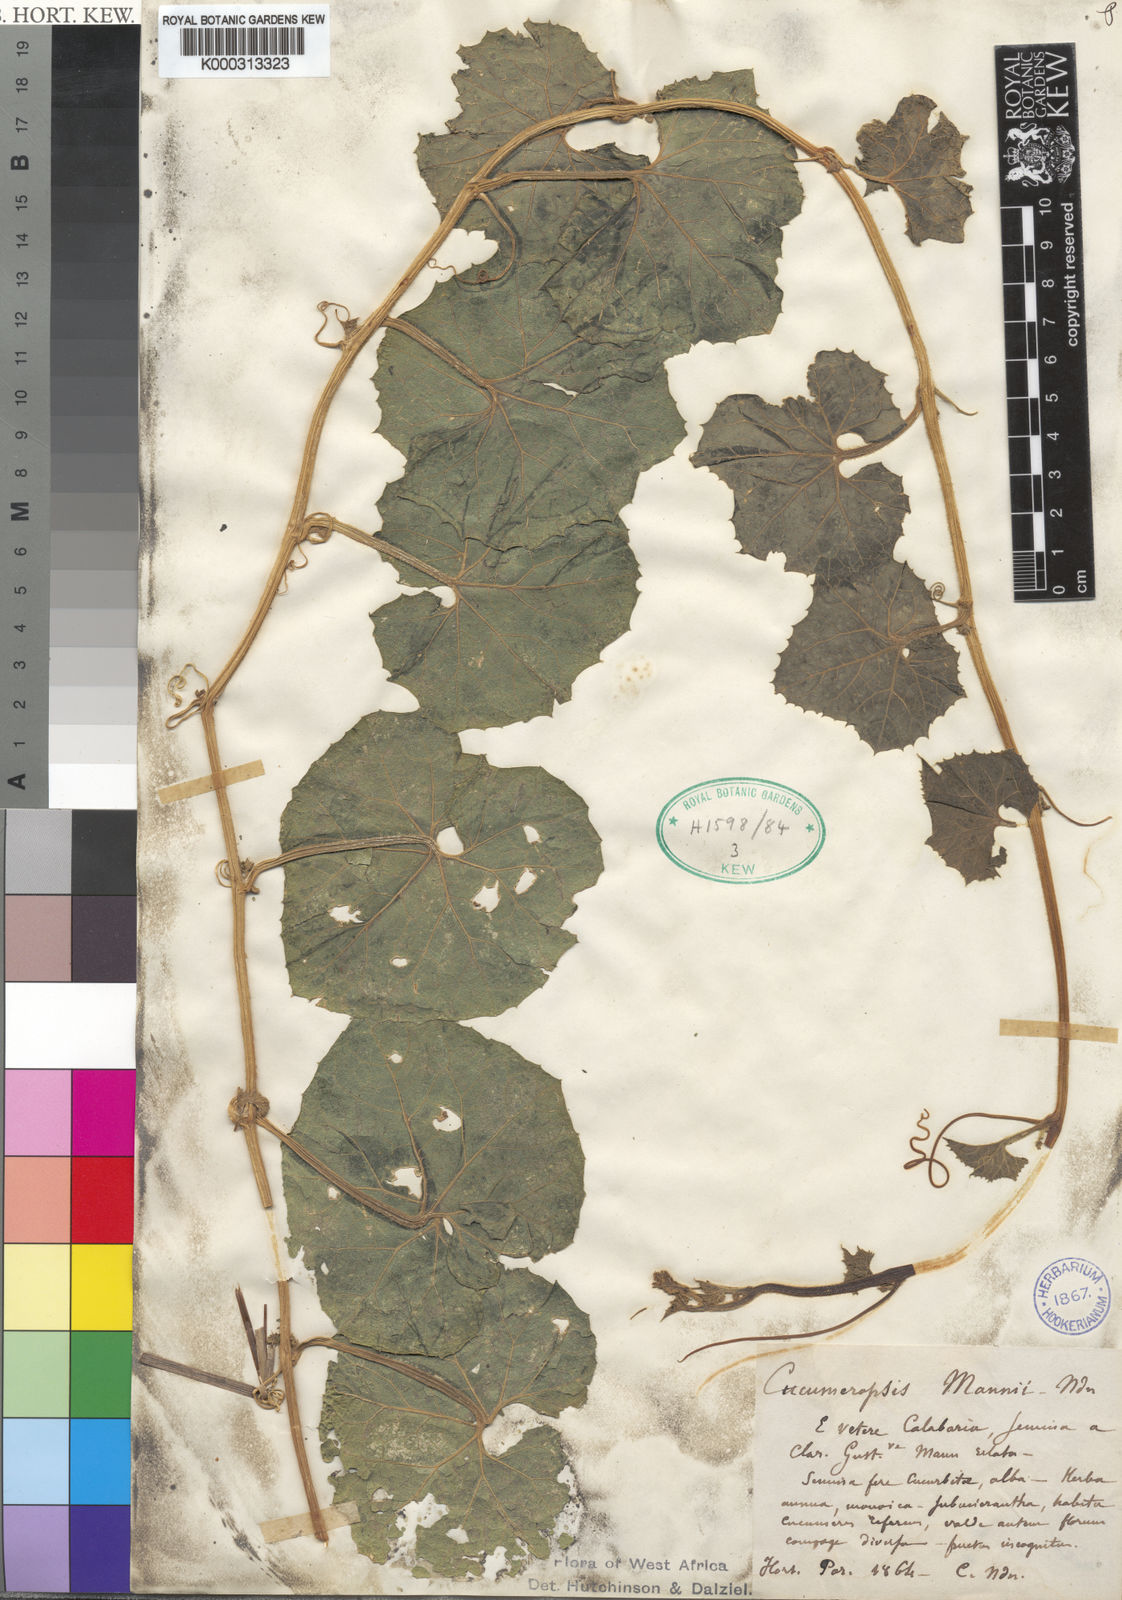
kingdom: Plantae
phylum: Tracheophyta
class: Magnoliopsida
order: Cucurbitales
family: Cucurbitaceae
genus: Melothria
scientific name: Melothria sphaerocarpa
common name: Egusi-itoo
